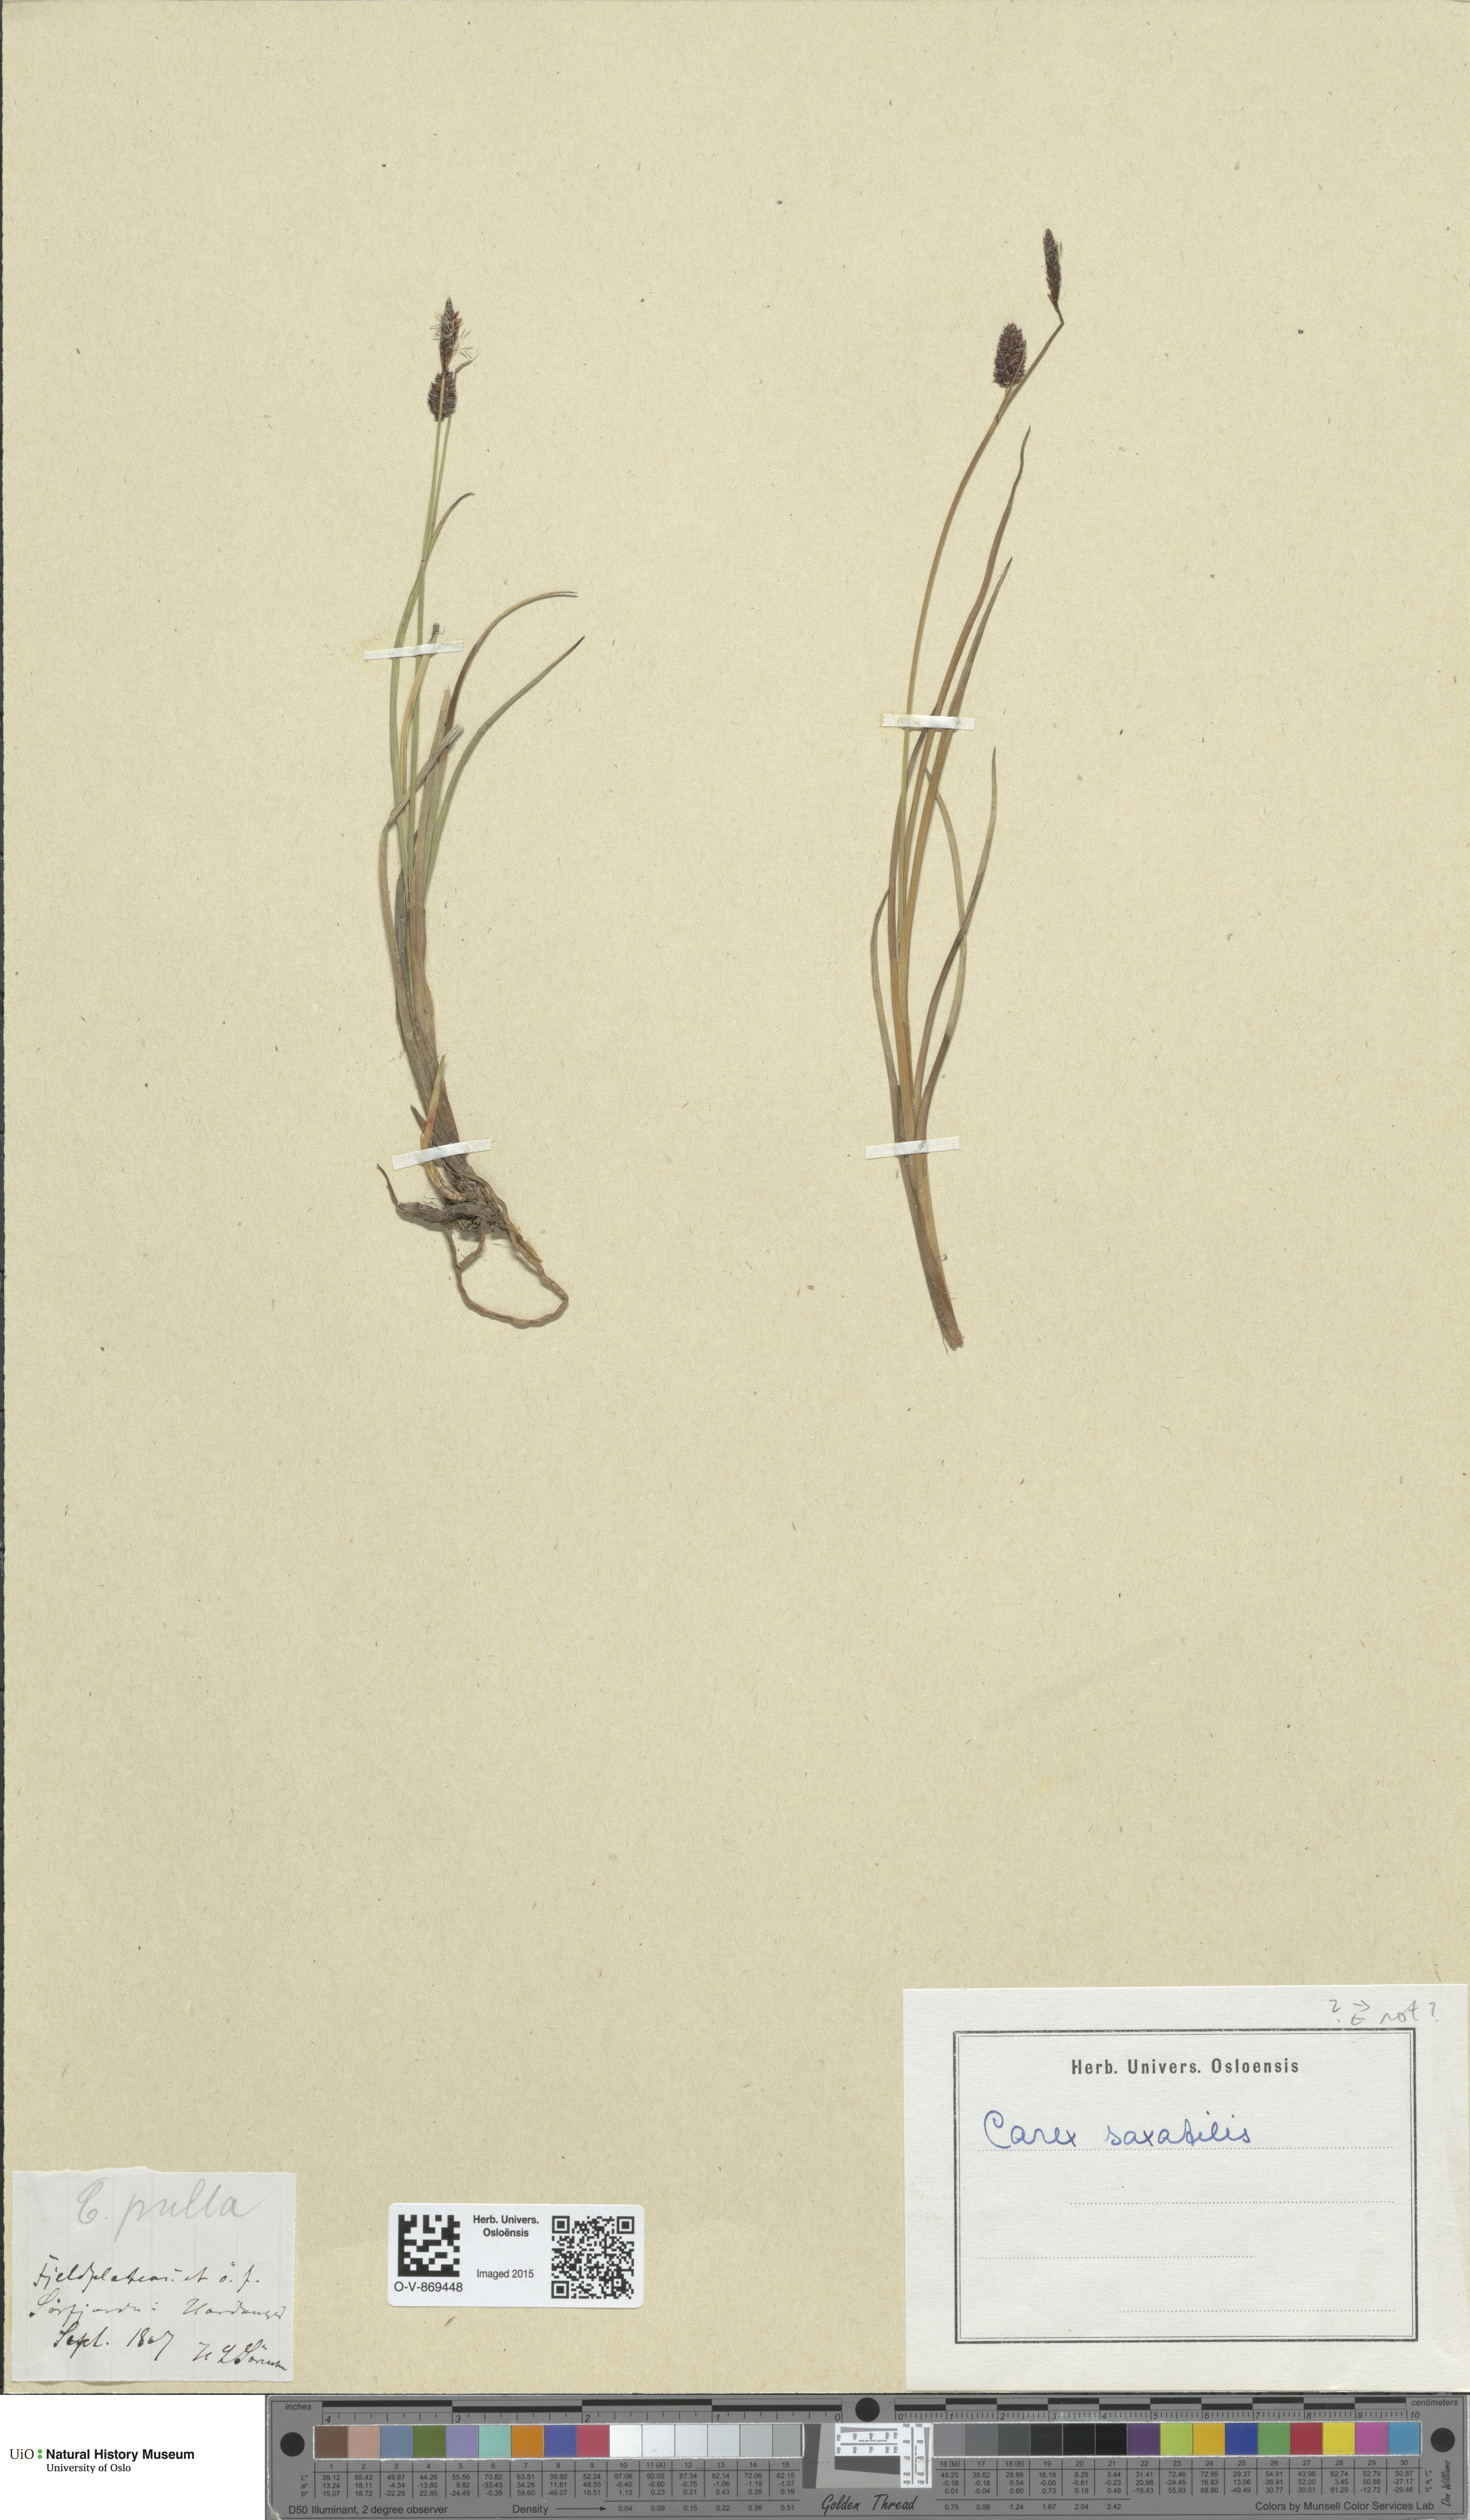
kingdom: Plantae
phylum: Tracheophyta
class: Liliopsida
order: Poales
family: Cyperaceae
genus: Carex
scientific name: Carex saxatilis
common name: Russet sedge
